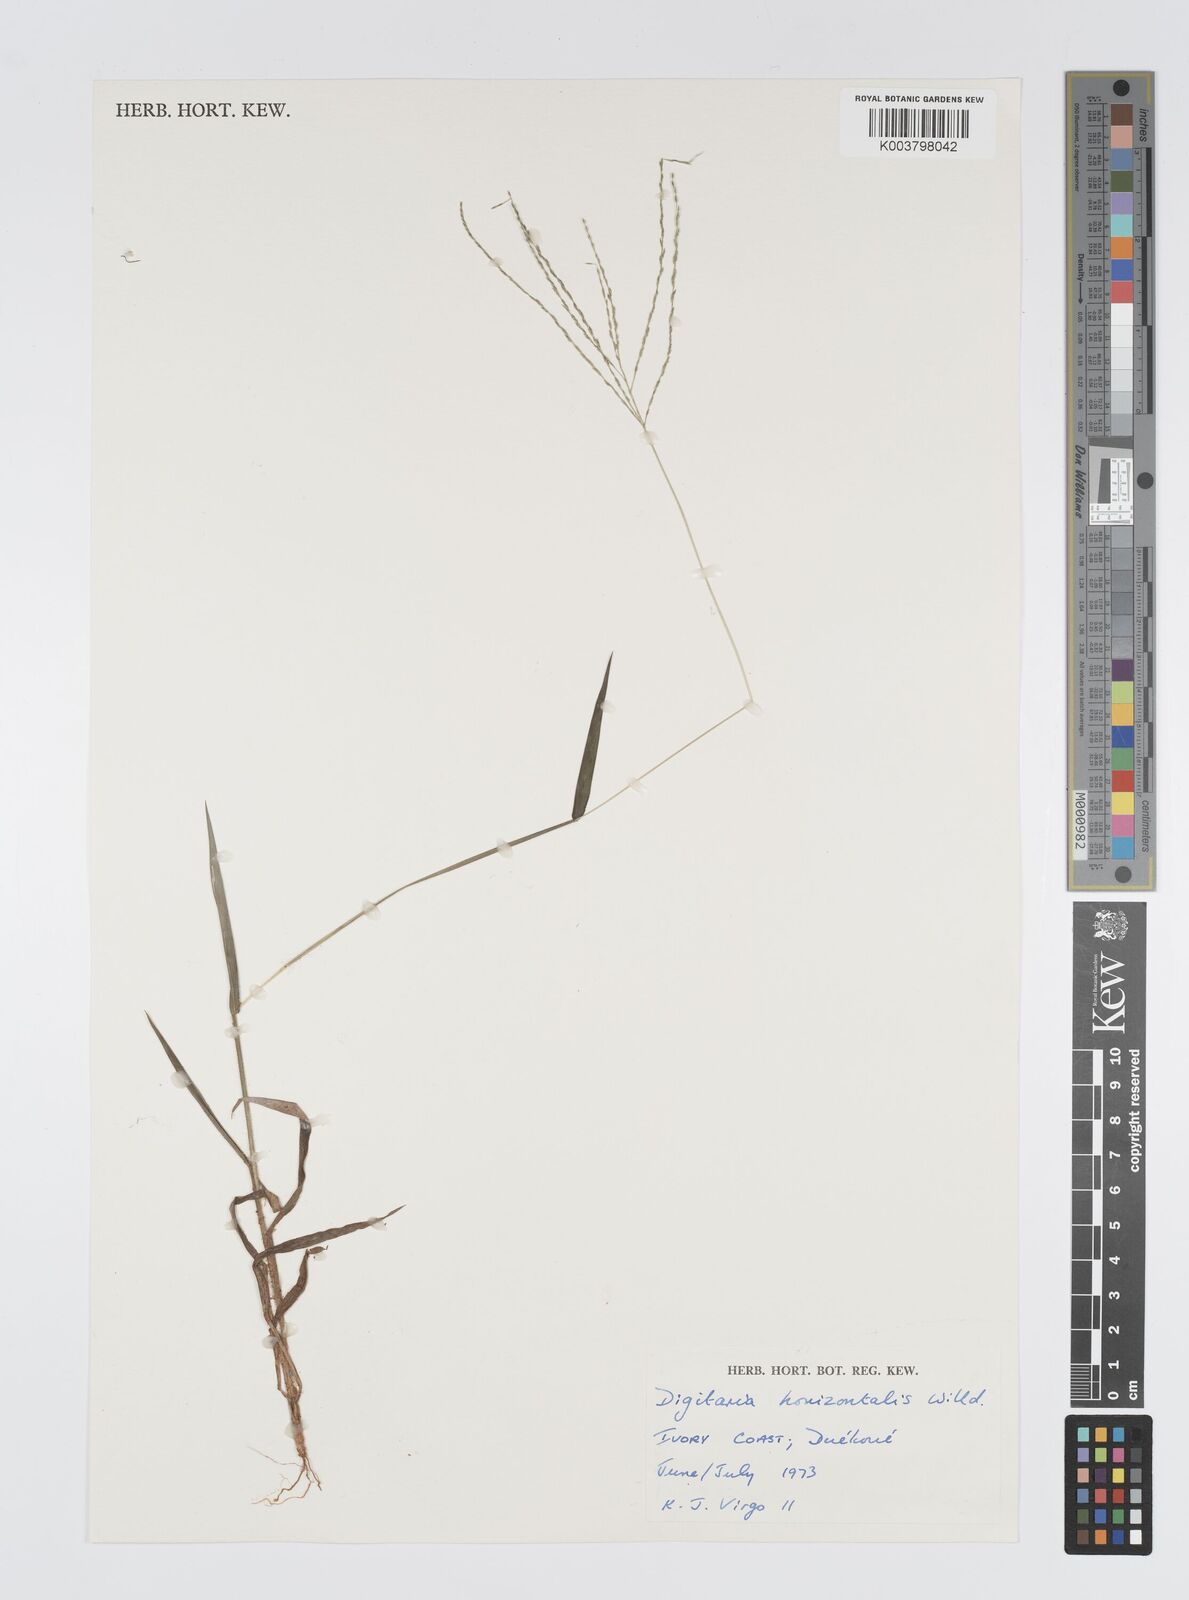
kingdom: Plantae
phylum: Tracheophyta
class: Liliopsida
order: Poales
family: Poaceae
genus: Digitaria
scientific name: Digitaria horizontalis
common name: Jamaican crabgrass
